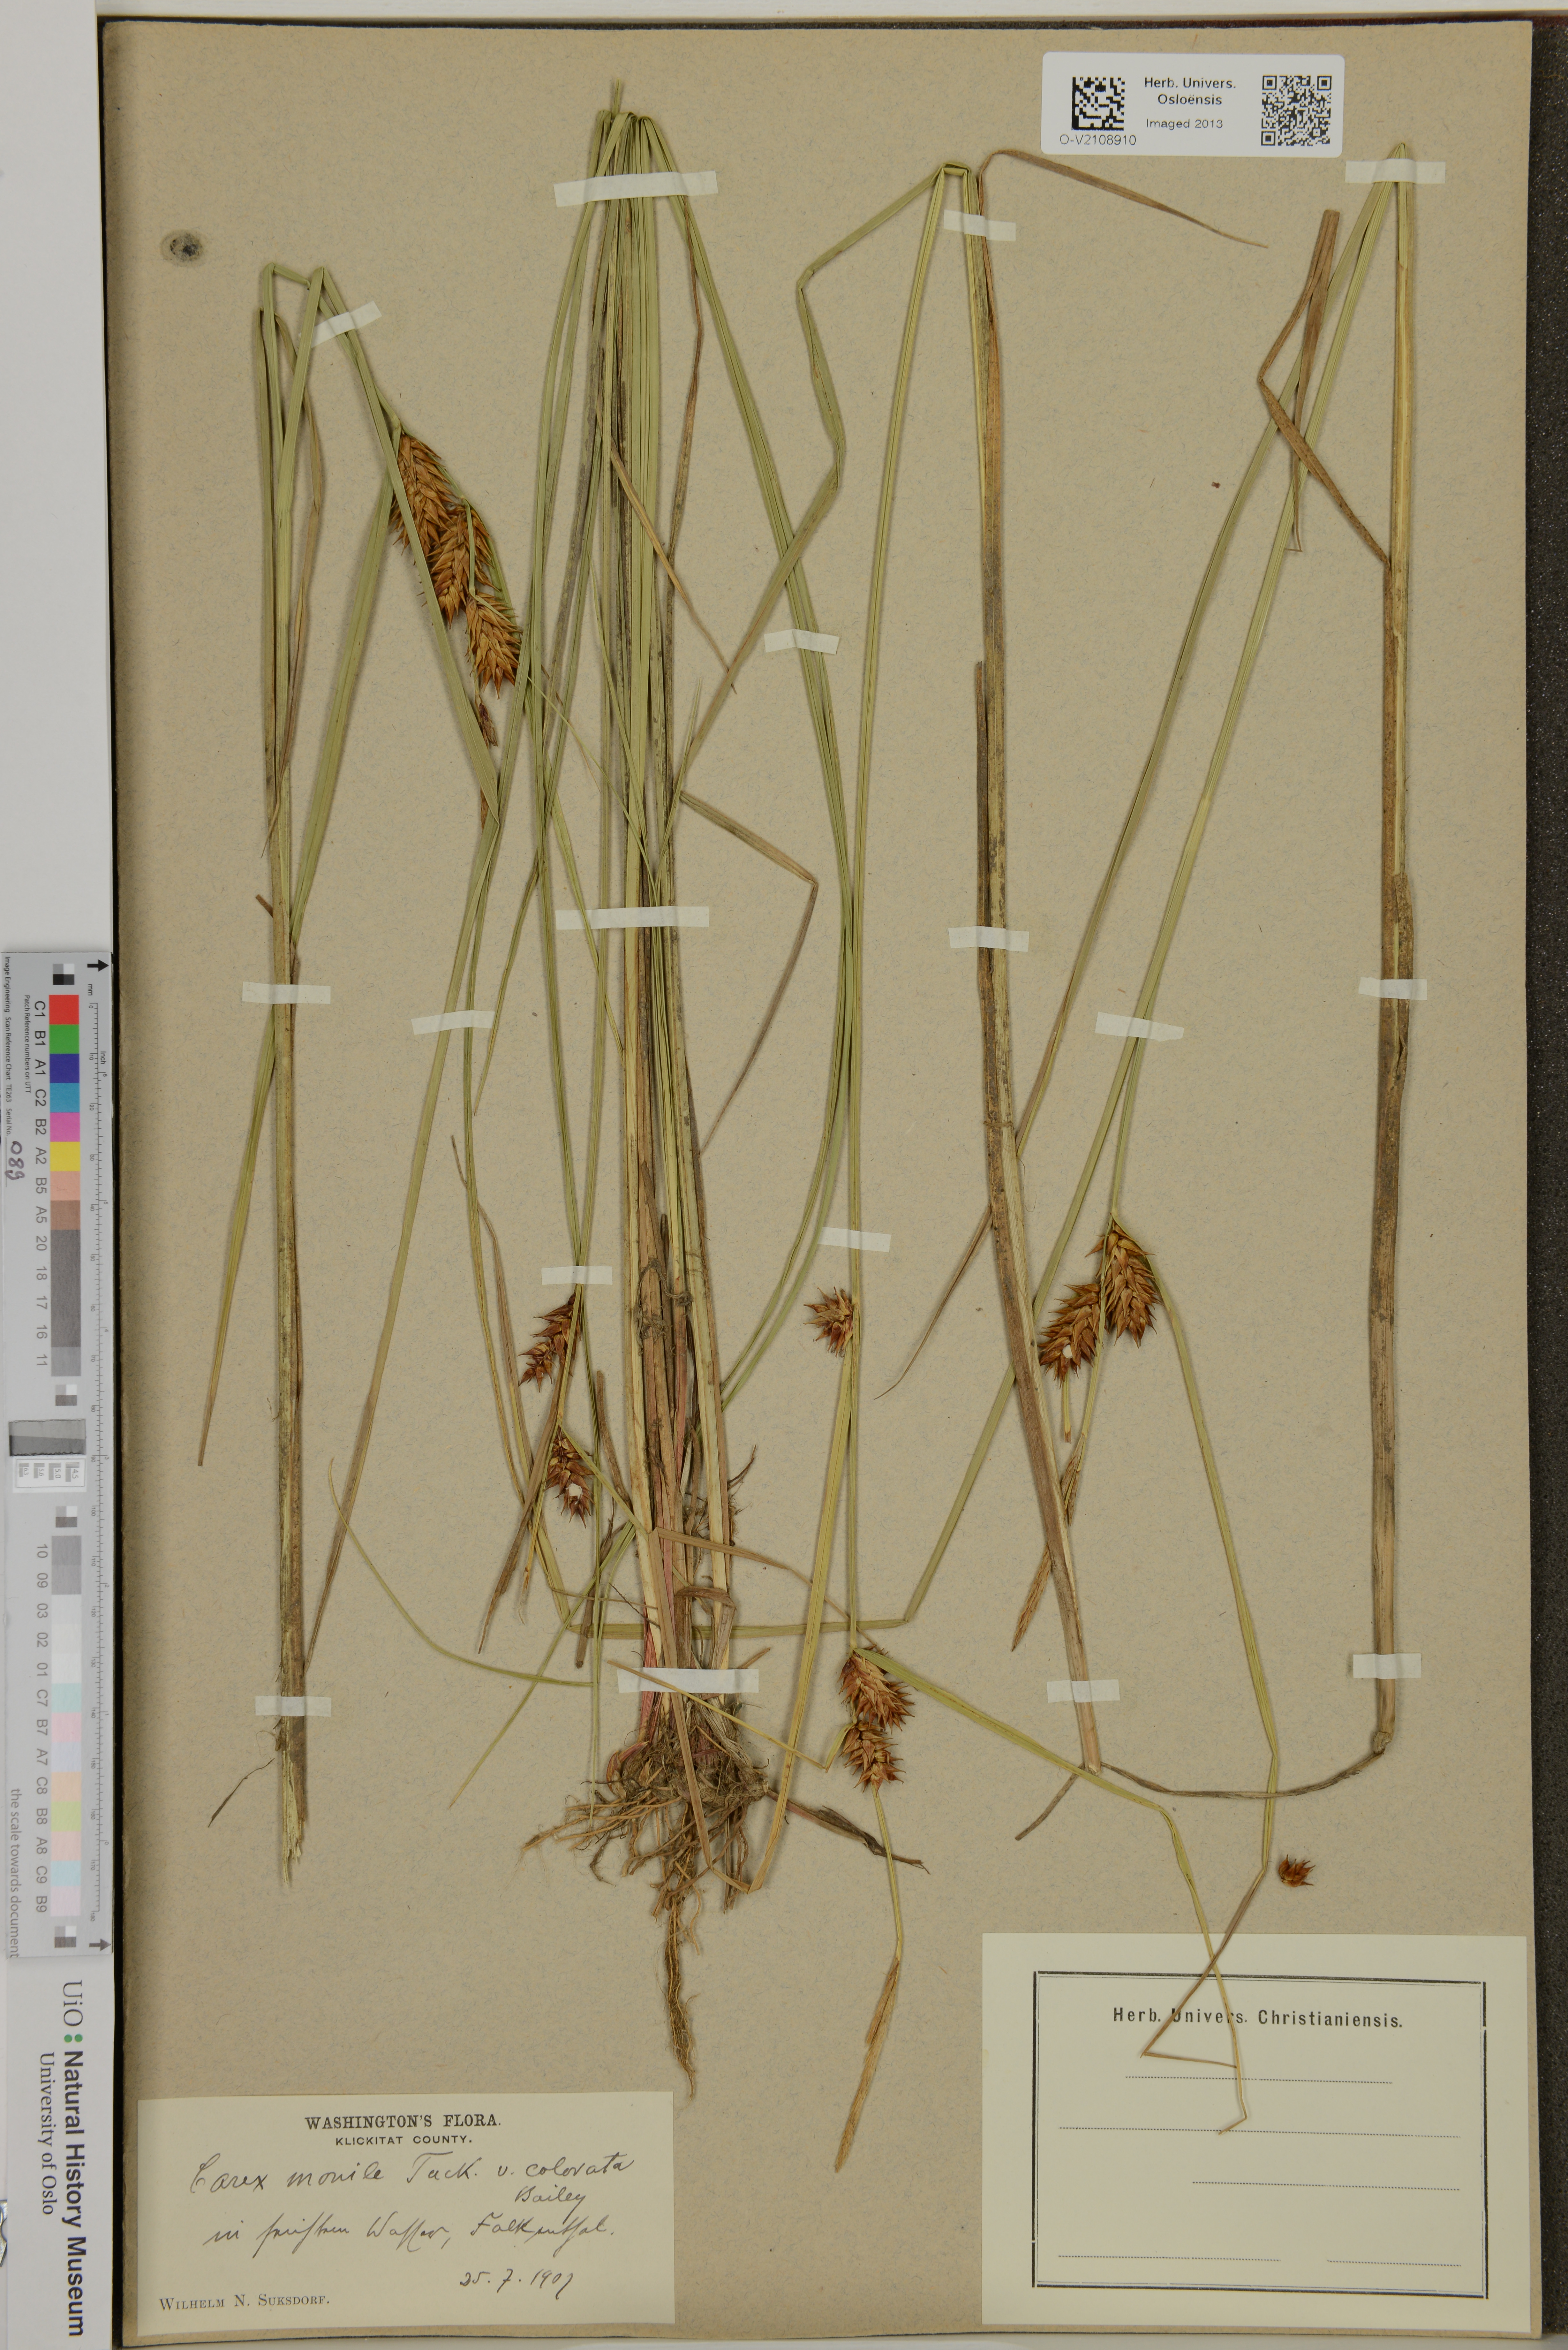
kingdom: Plantae
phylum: Tracheophyta
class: Liliopsida
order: Poales
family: Cyperaceae
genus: Carex
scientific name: Carex monile
